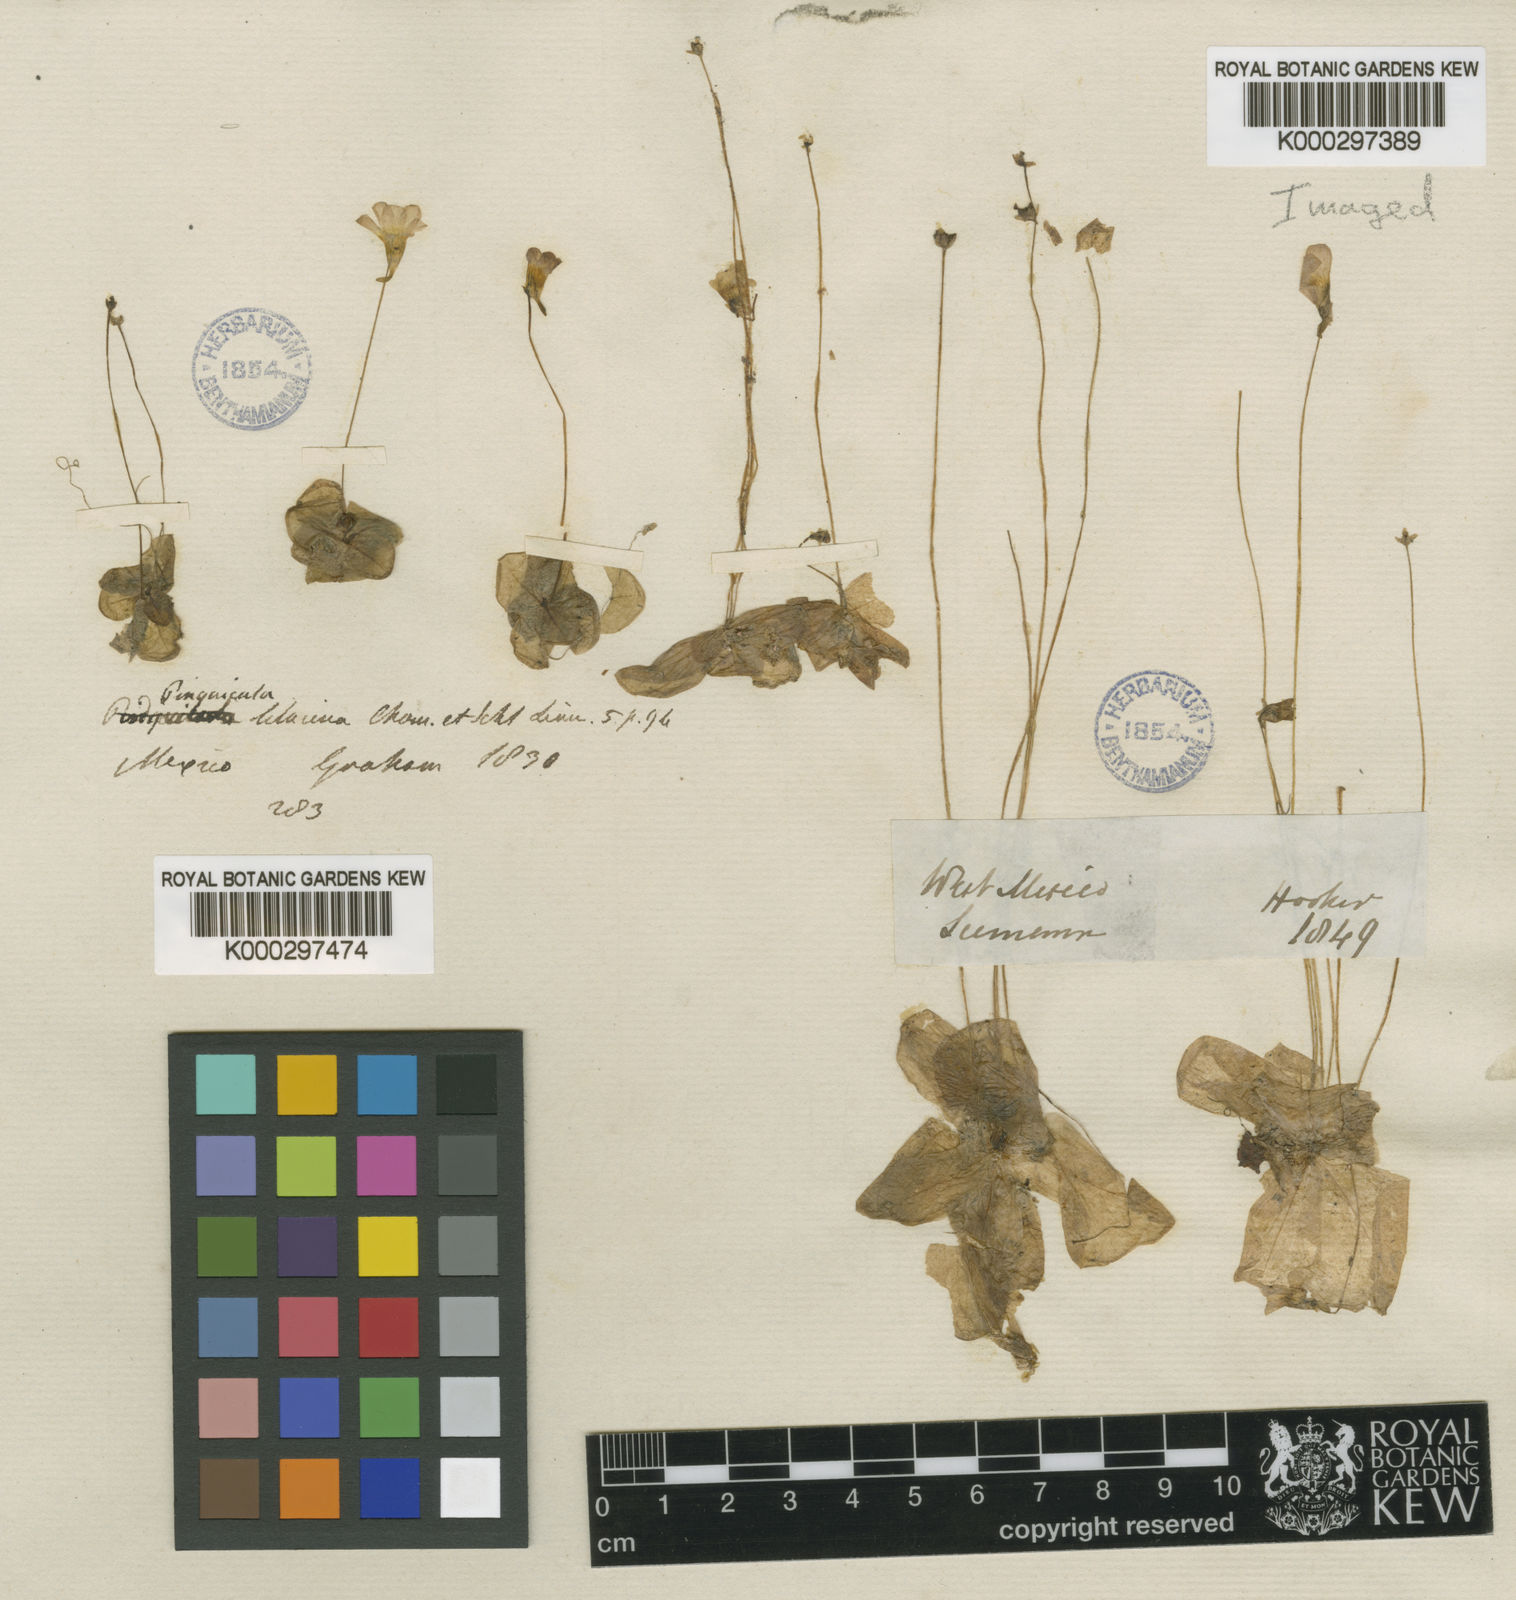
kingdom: Plantae
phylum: Tracheophyta
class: Magnoliopsida
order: Lamiales
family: Lentibulariaceae
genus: Pinguicula
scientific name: Pinguicula lilacina
